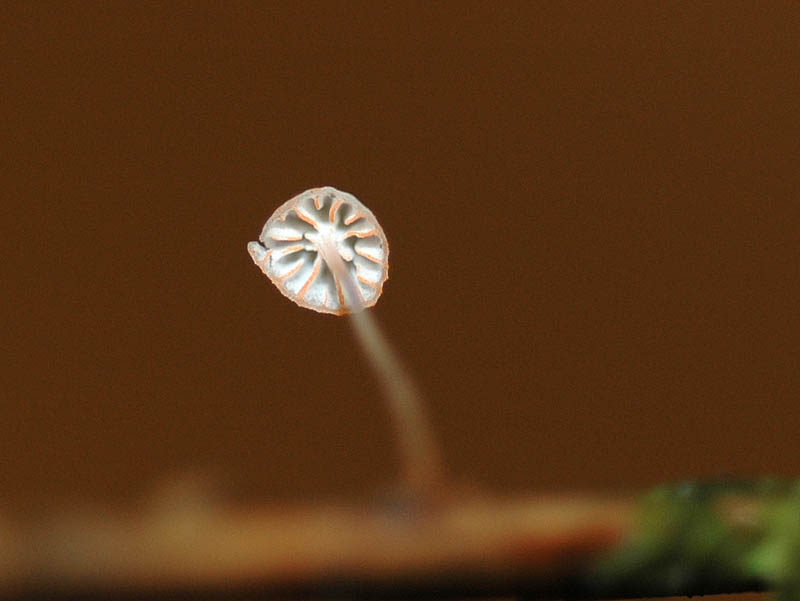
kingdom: Fungi
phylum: Basidiomycota
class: Agaricomycetes
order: Agaricales
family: Mycenaceae
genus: Mycena
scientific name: Mycena pterigena
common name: bregne-huesvamp
